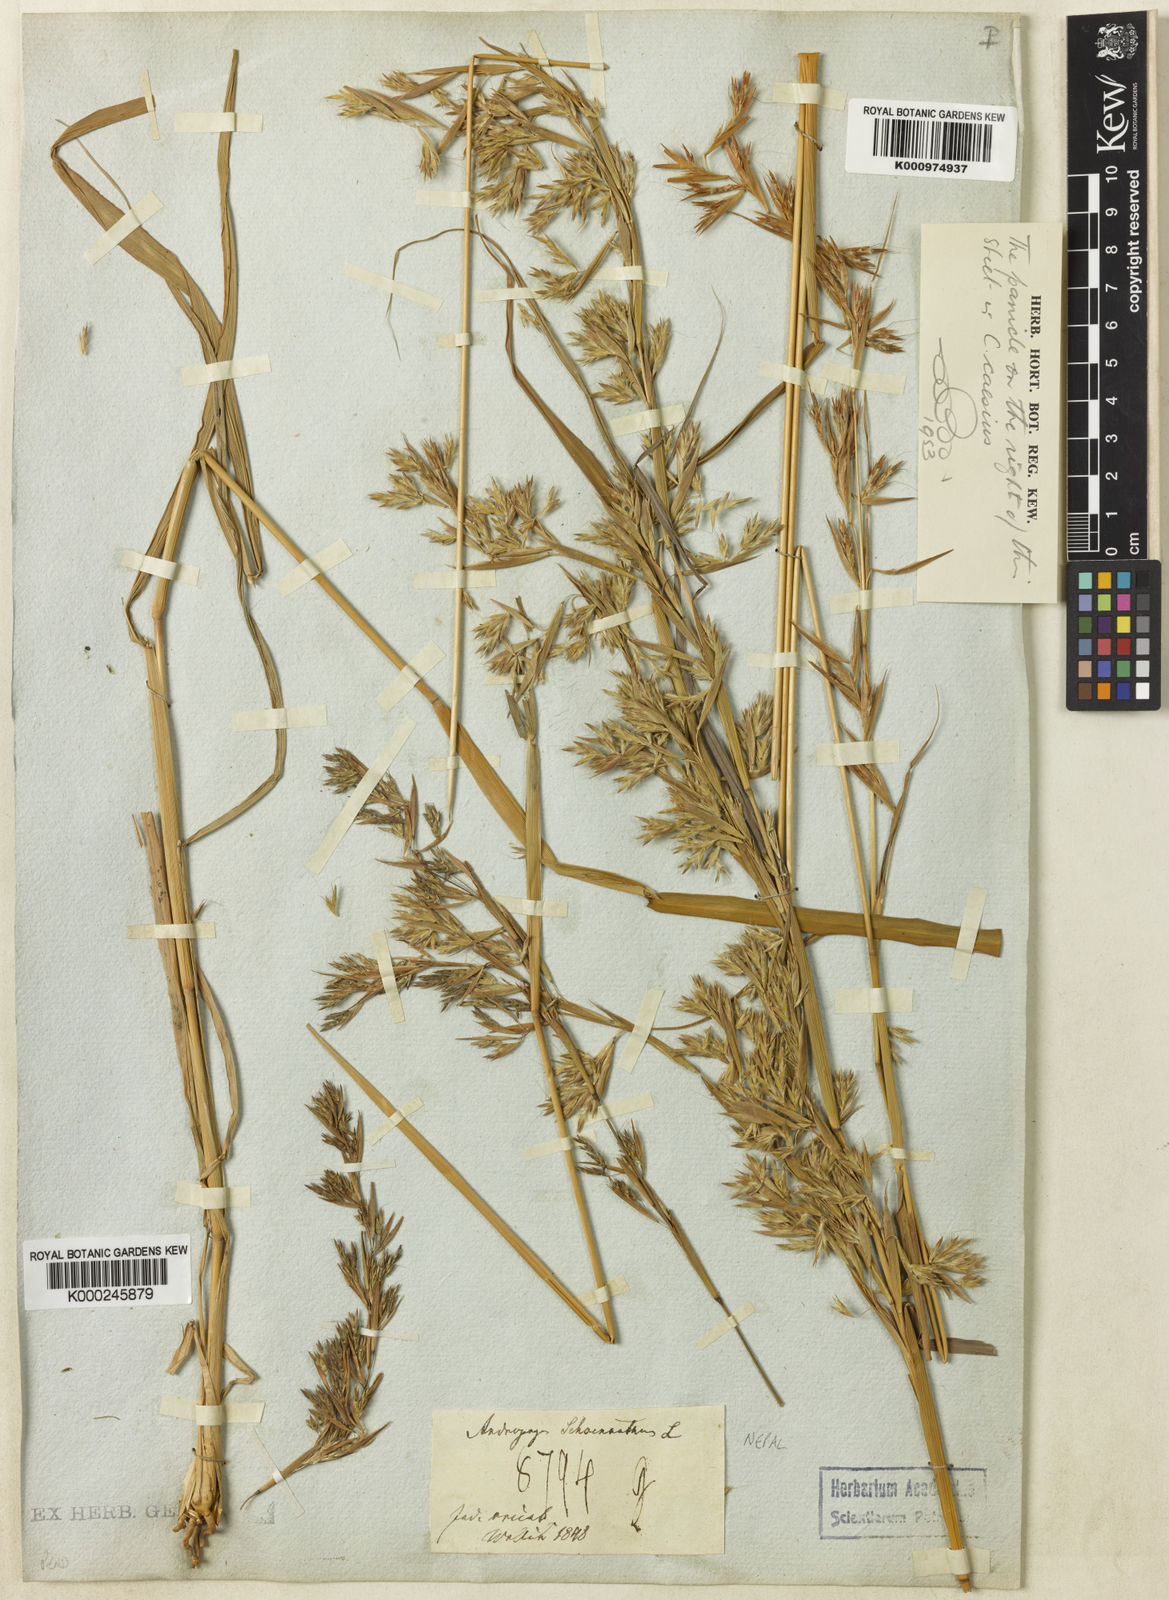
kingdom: Plantae
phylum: Tracheophyta
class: Liliopsida
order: Poales
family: Poaceae
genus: Cymbopogon
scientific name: Cymbopogon pendulus
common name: Jammu lemongrass
